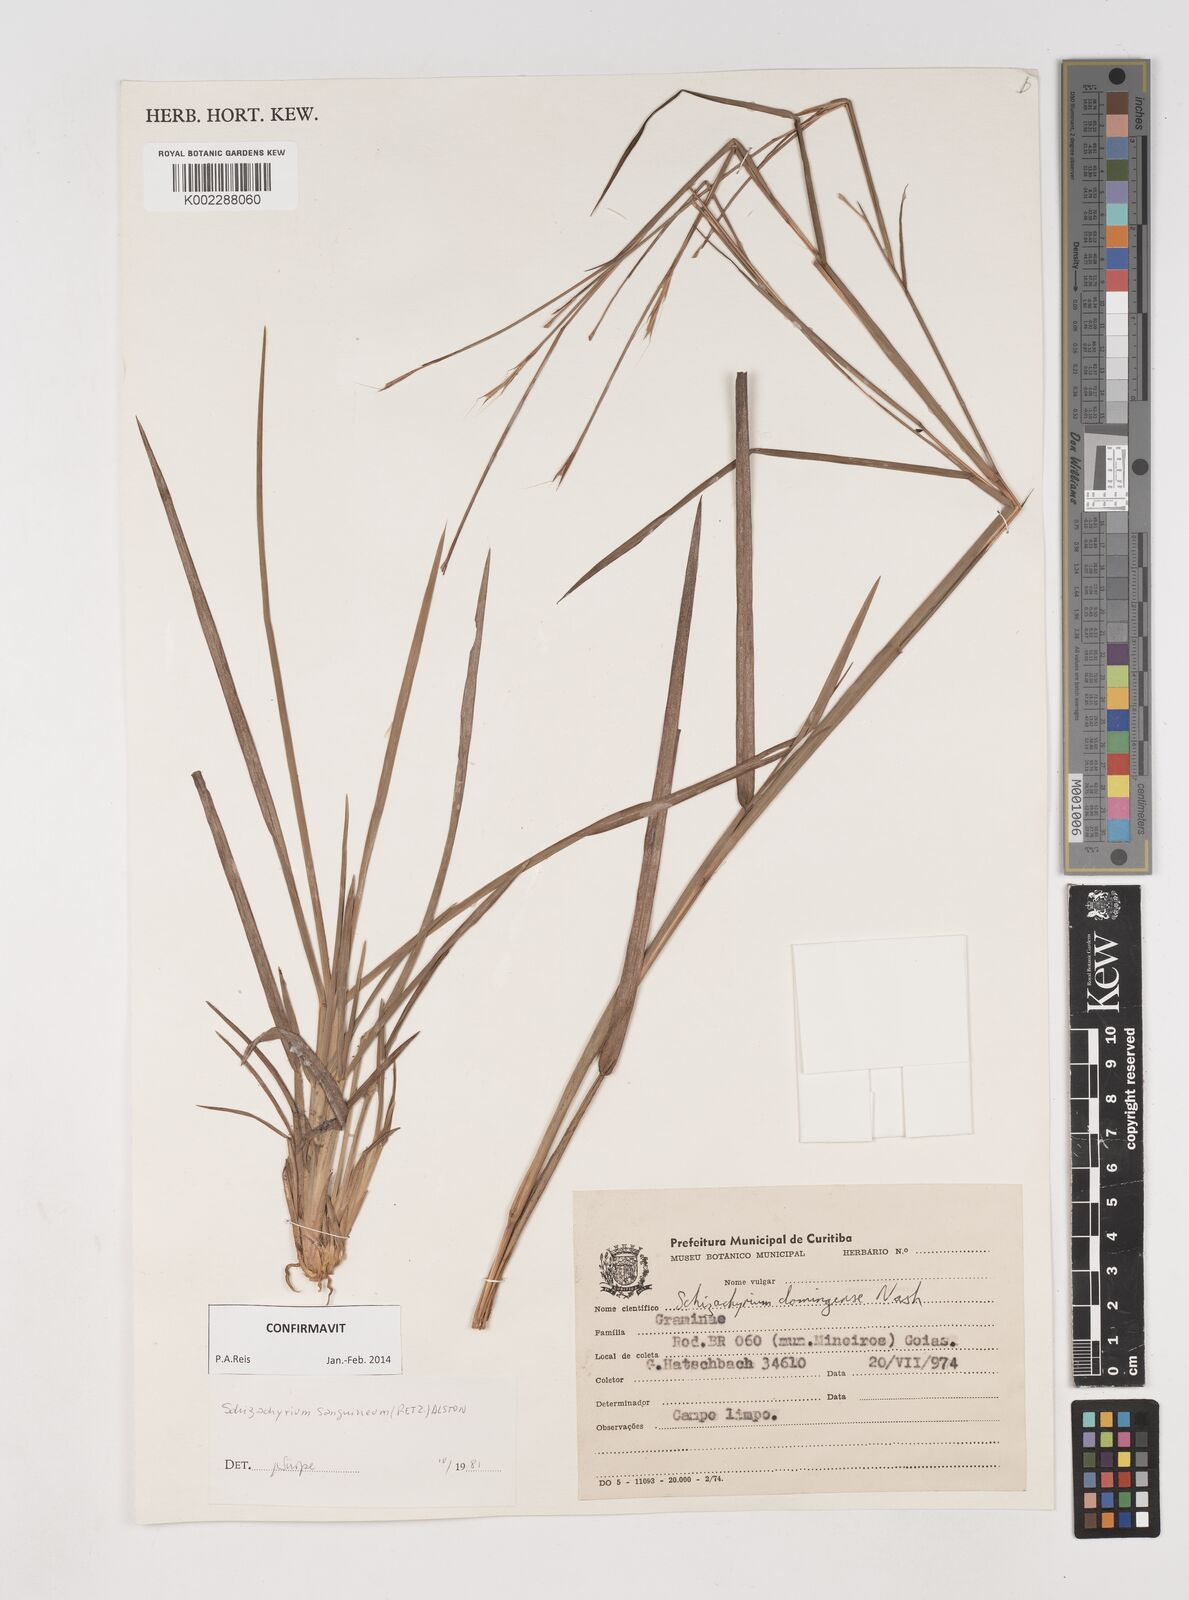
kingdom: Plantae
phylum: Tracheophyta
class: Liliopsida
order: Poales
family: Poaceae
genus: Schizachyrium
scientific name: Schizachyrium sanguineum
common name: Crimson bluestem
